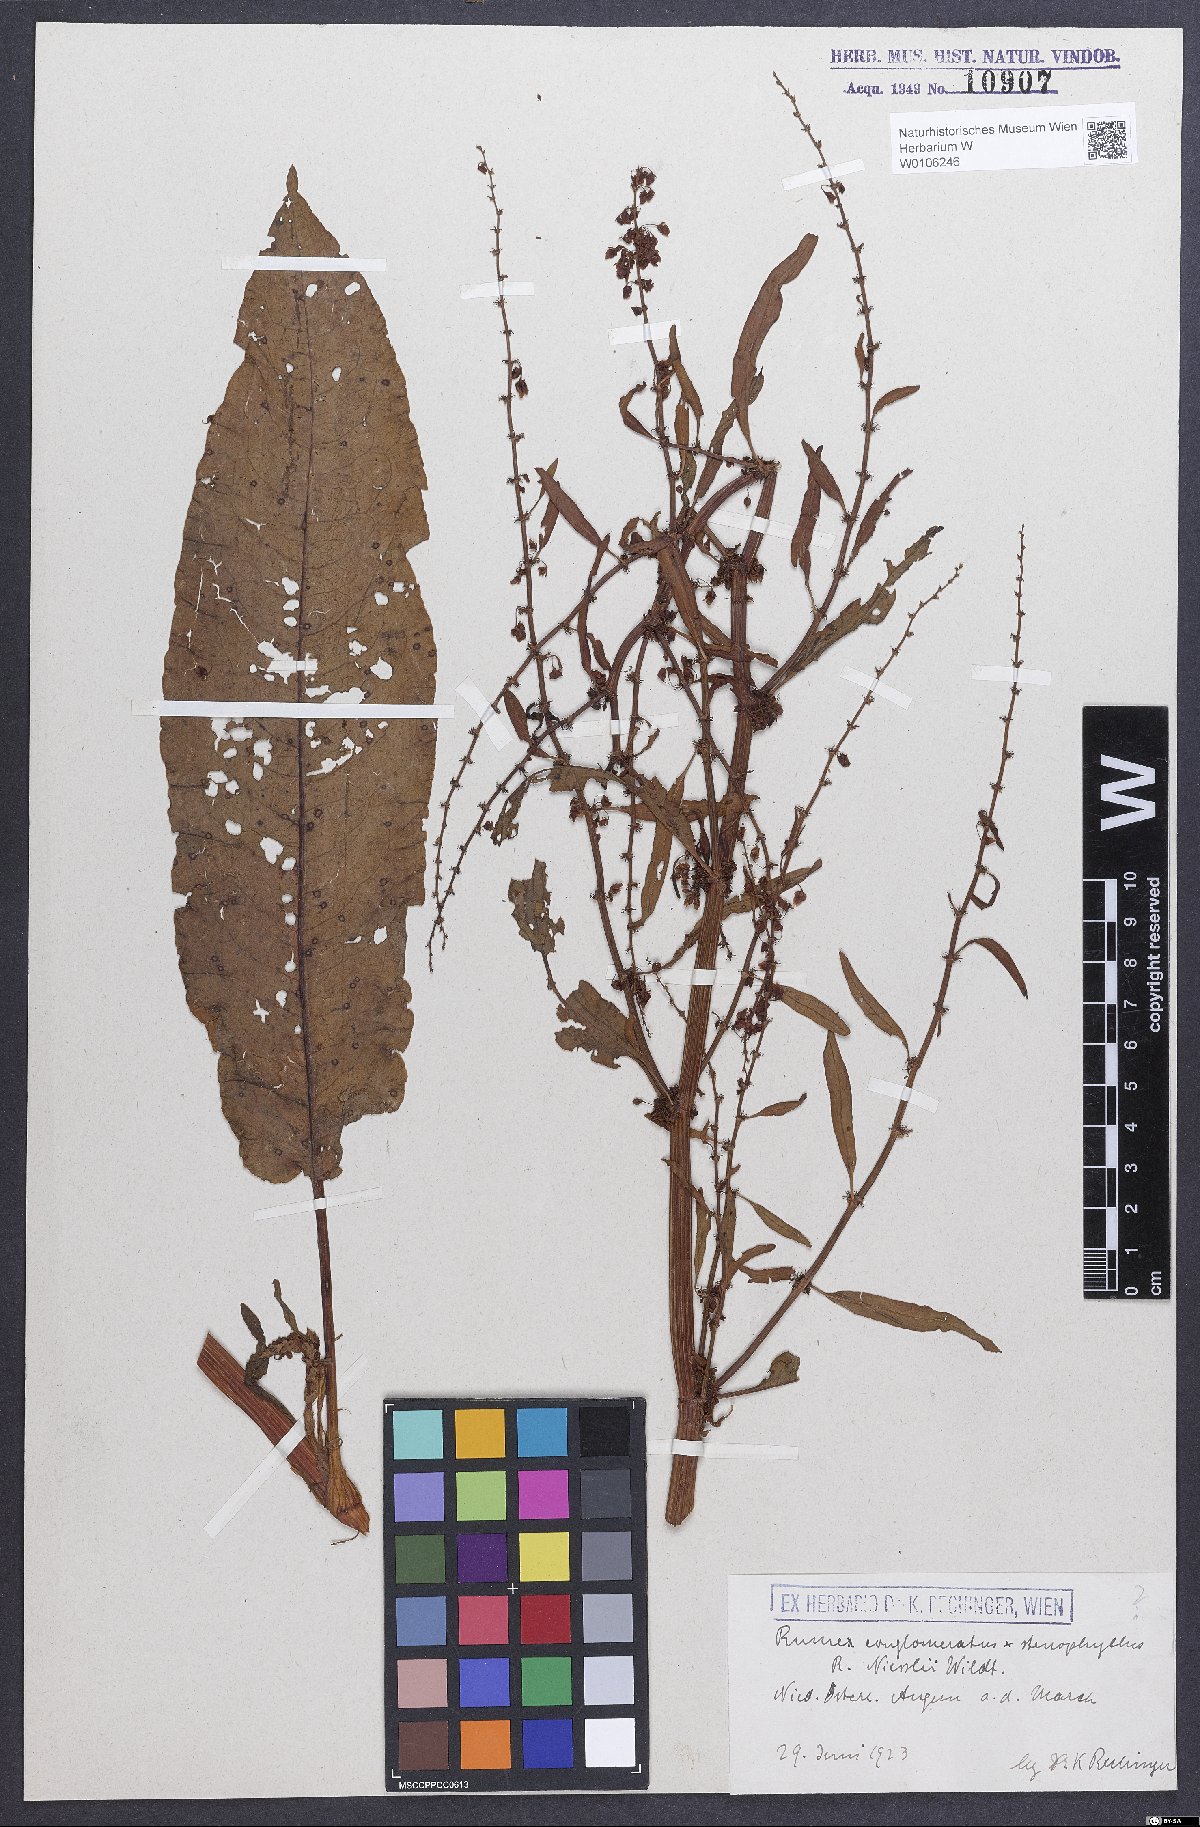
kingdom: Plantae
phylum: Tracheophyta
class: Magnoliopsida
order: Caryophyllales
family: Polygonaceae
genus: Rumex
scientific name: Rumex
